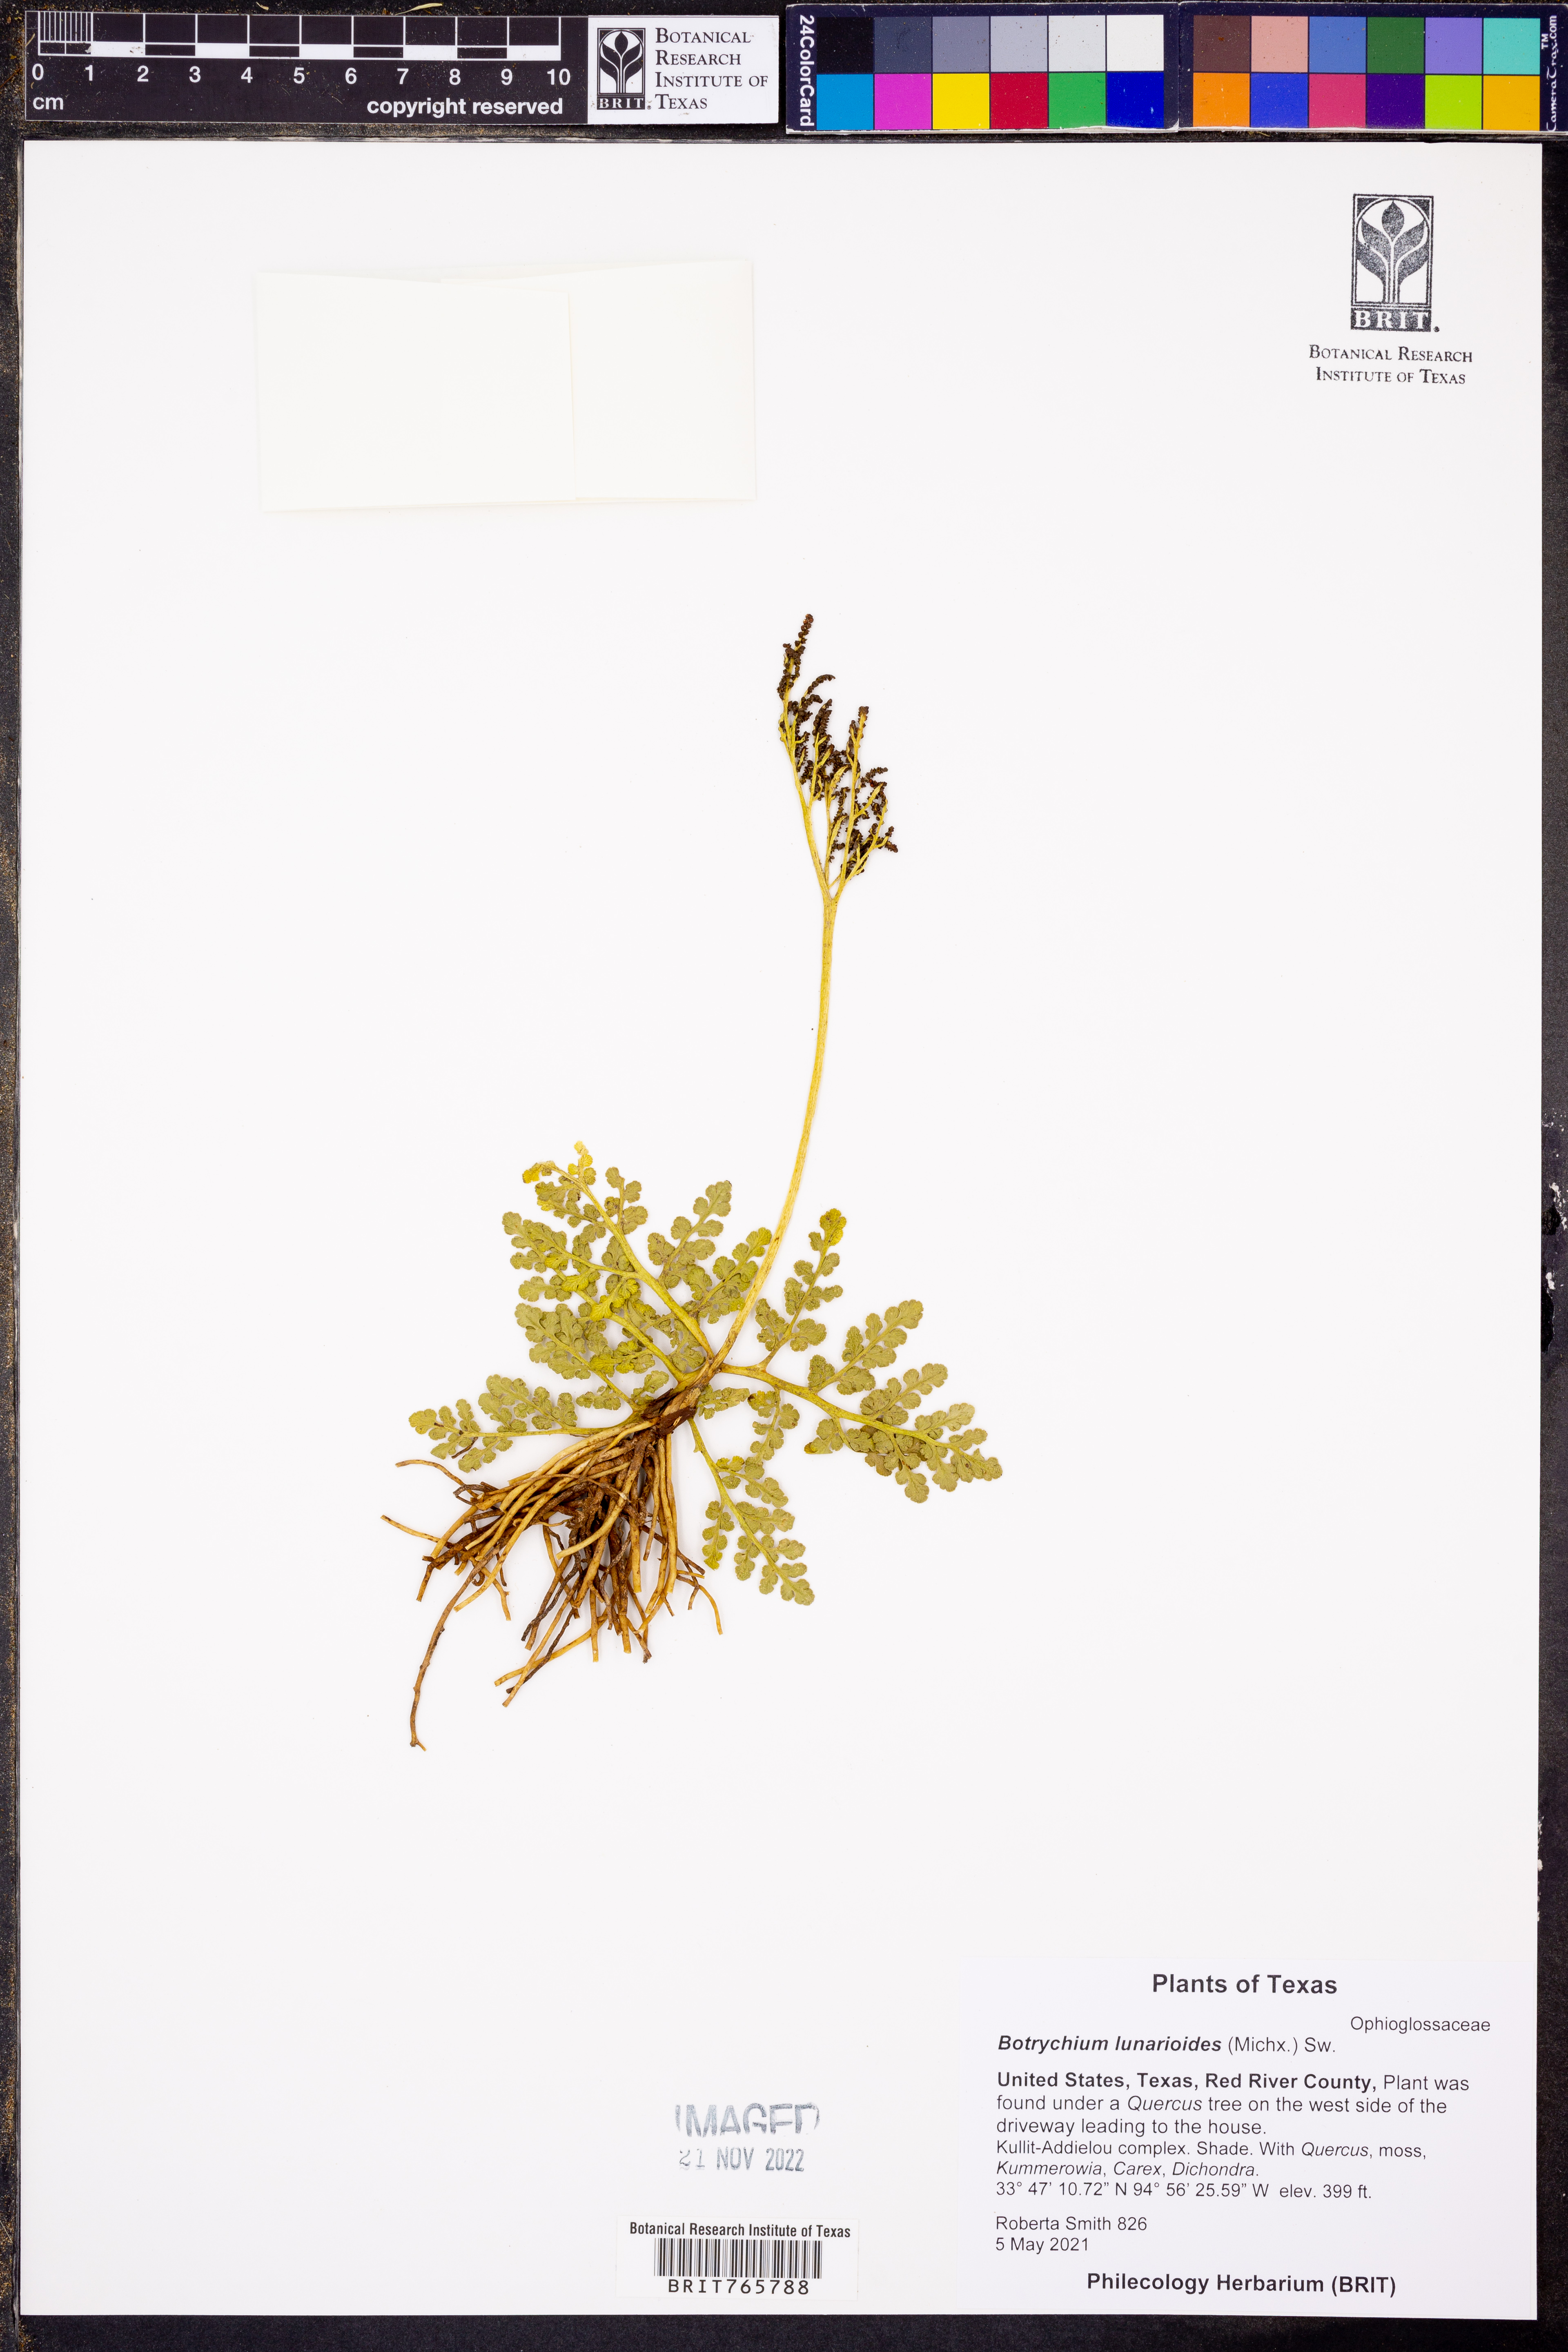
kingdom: Plantae
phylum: Tracheophyta
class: Polypodiopsida
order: Ophioglossales
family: Ophioglossaceae
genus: Sceptridium
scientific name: Sceptridium lunarioides
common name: Prostrate grapefern
